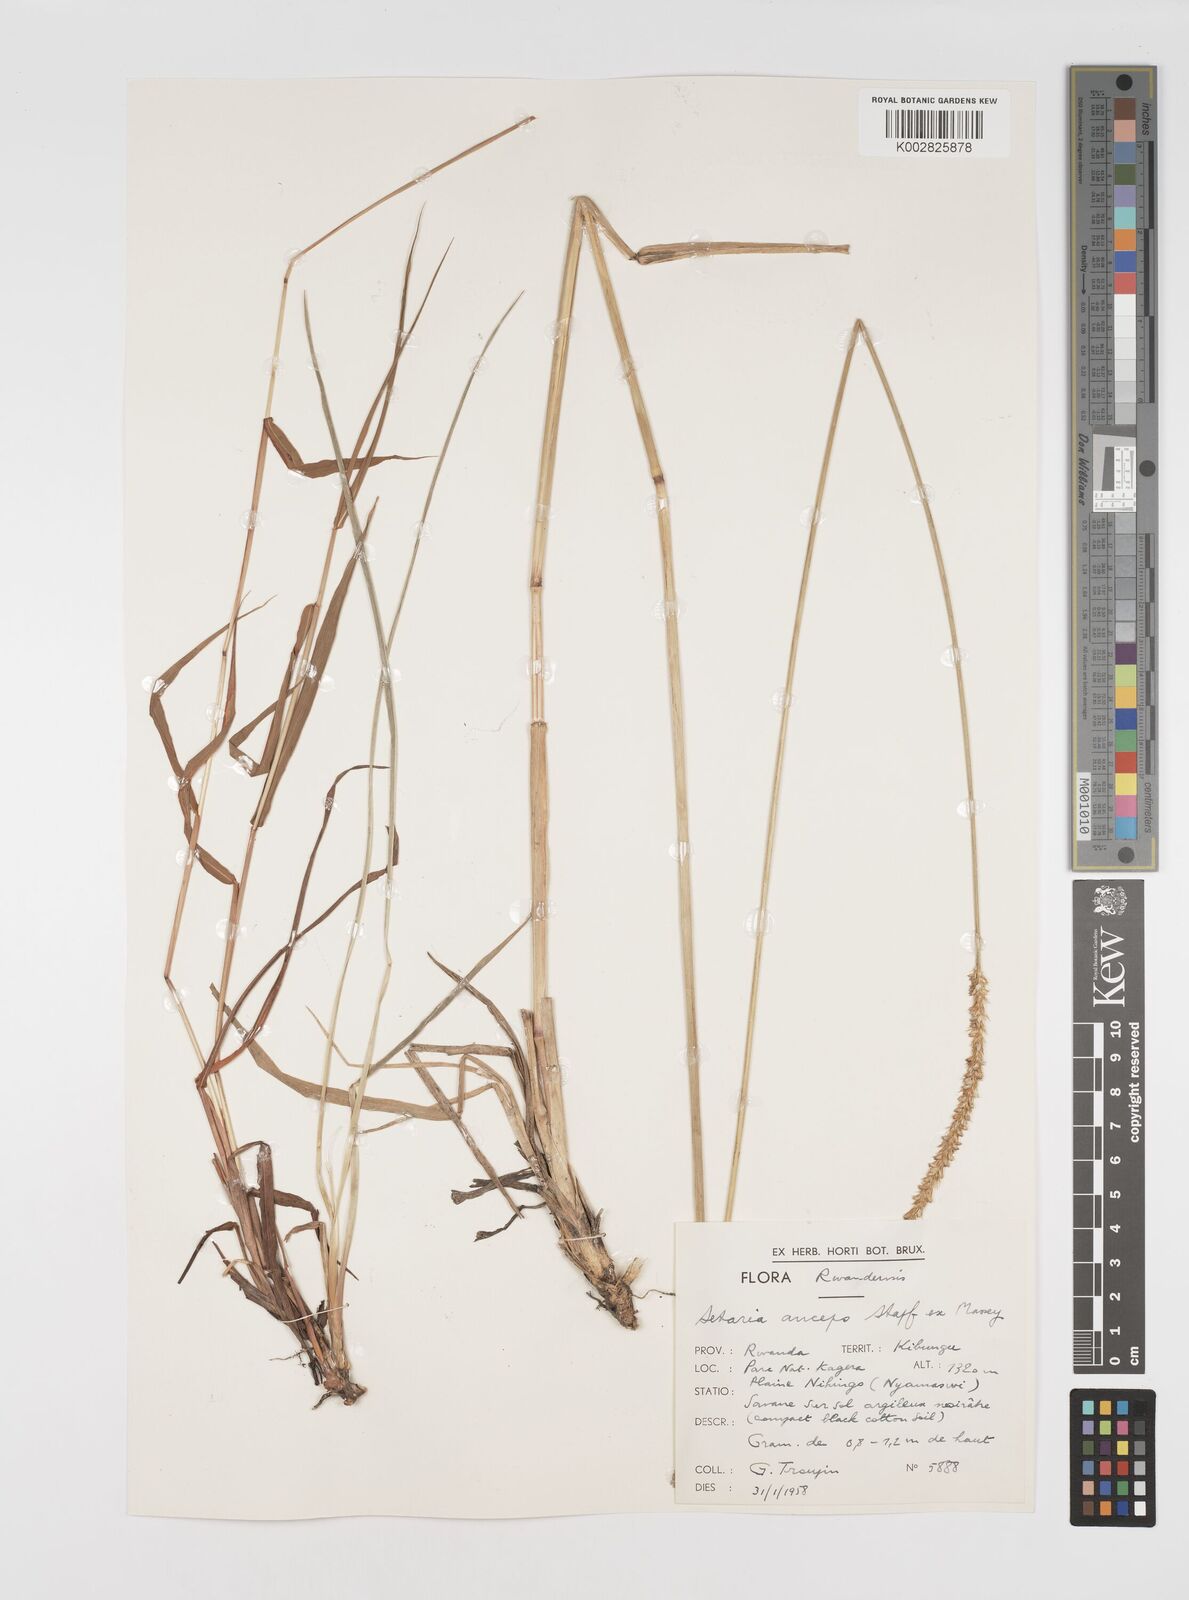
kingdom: Plantae
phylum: Tracheophyta
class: Liliopsida
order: Poales
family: Poaceae
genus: Setaria
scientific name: Setaria sphacelata
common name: African bristlegrass
